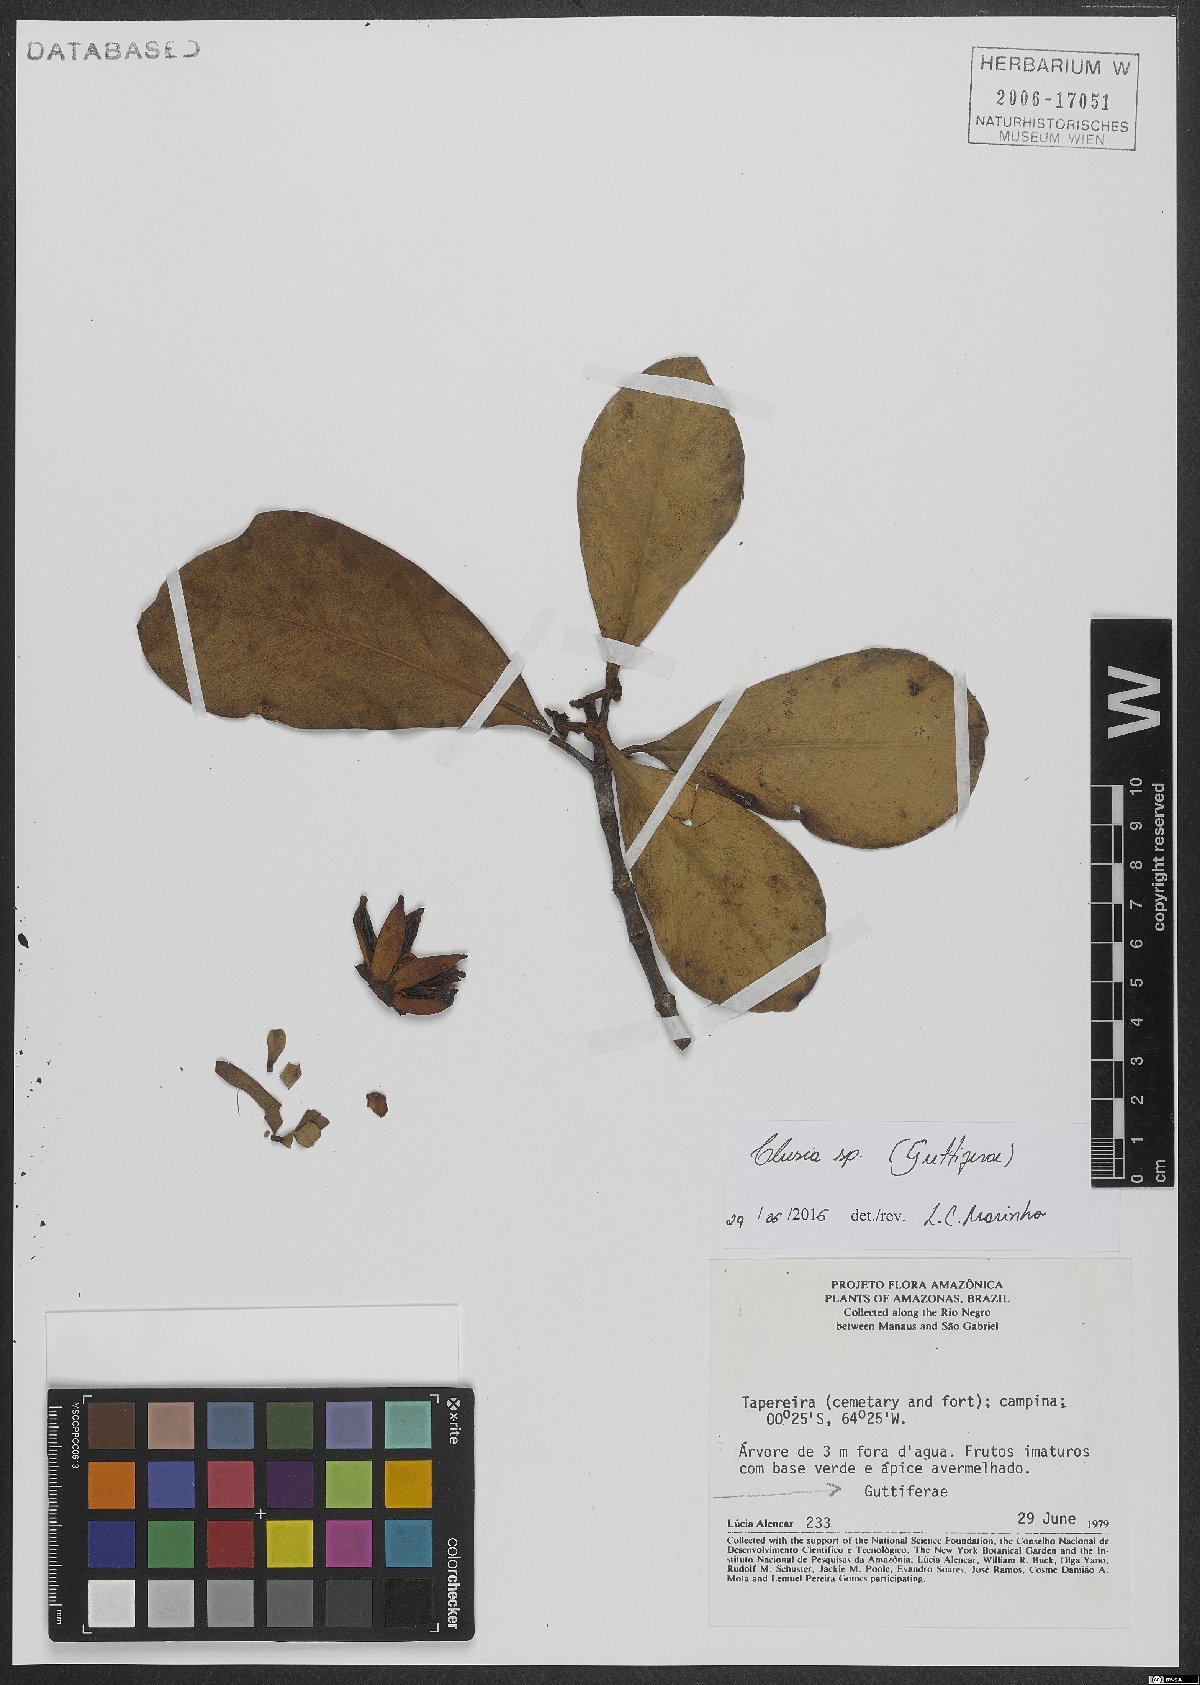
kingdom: Plantae
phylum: Tracheophyta
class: Magnoliopsida
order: Malpighiales
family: Clusiaceae
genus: Clusia
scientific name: Clusia
